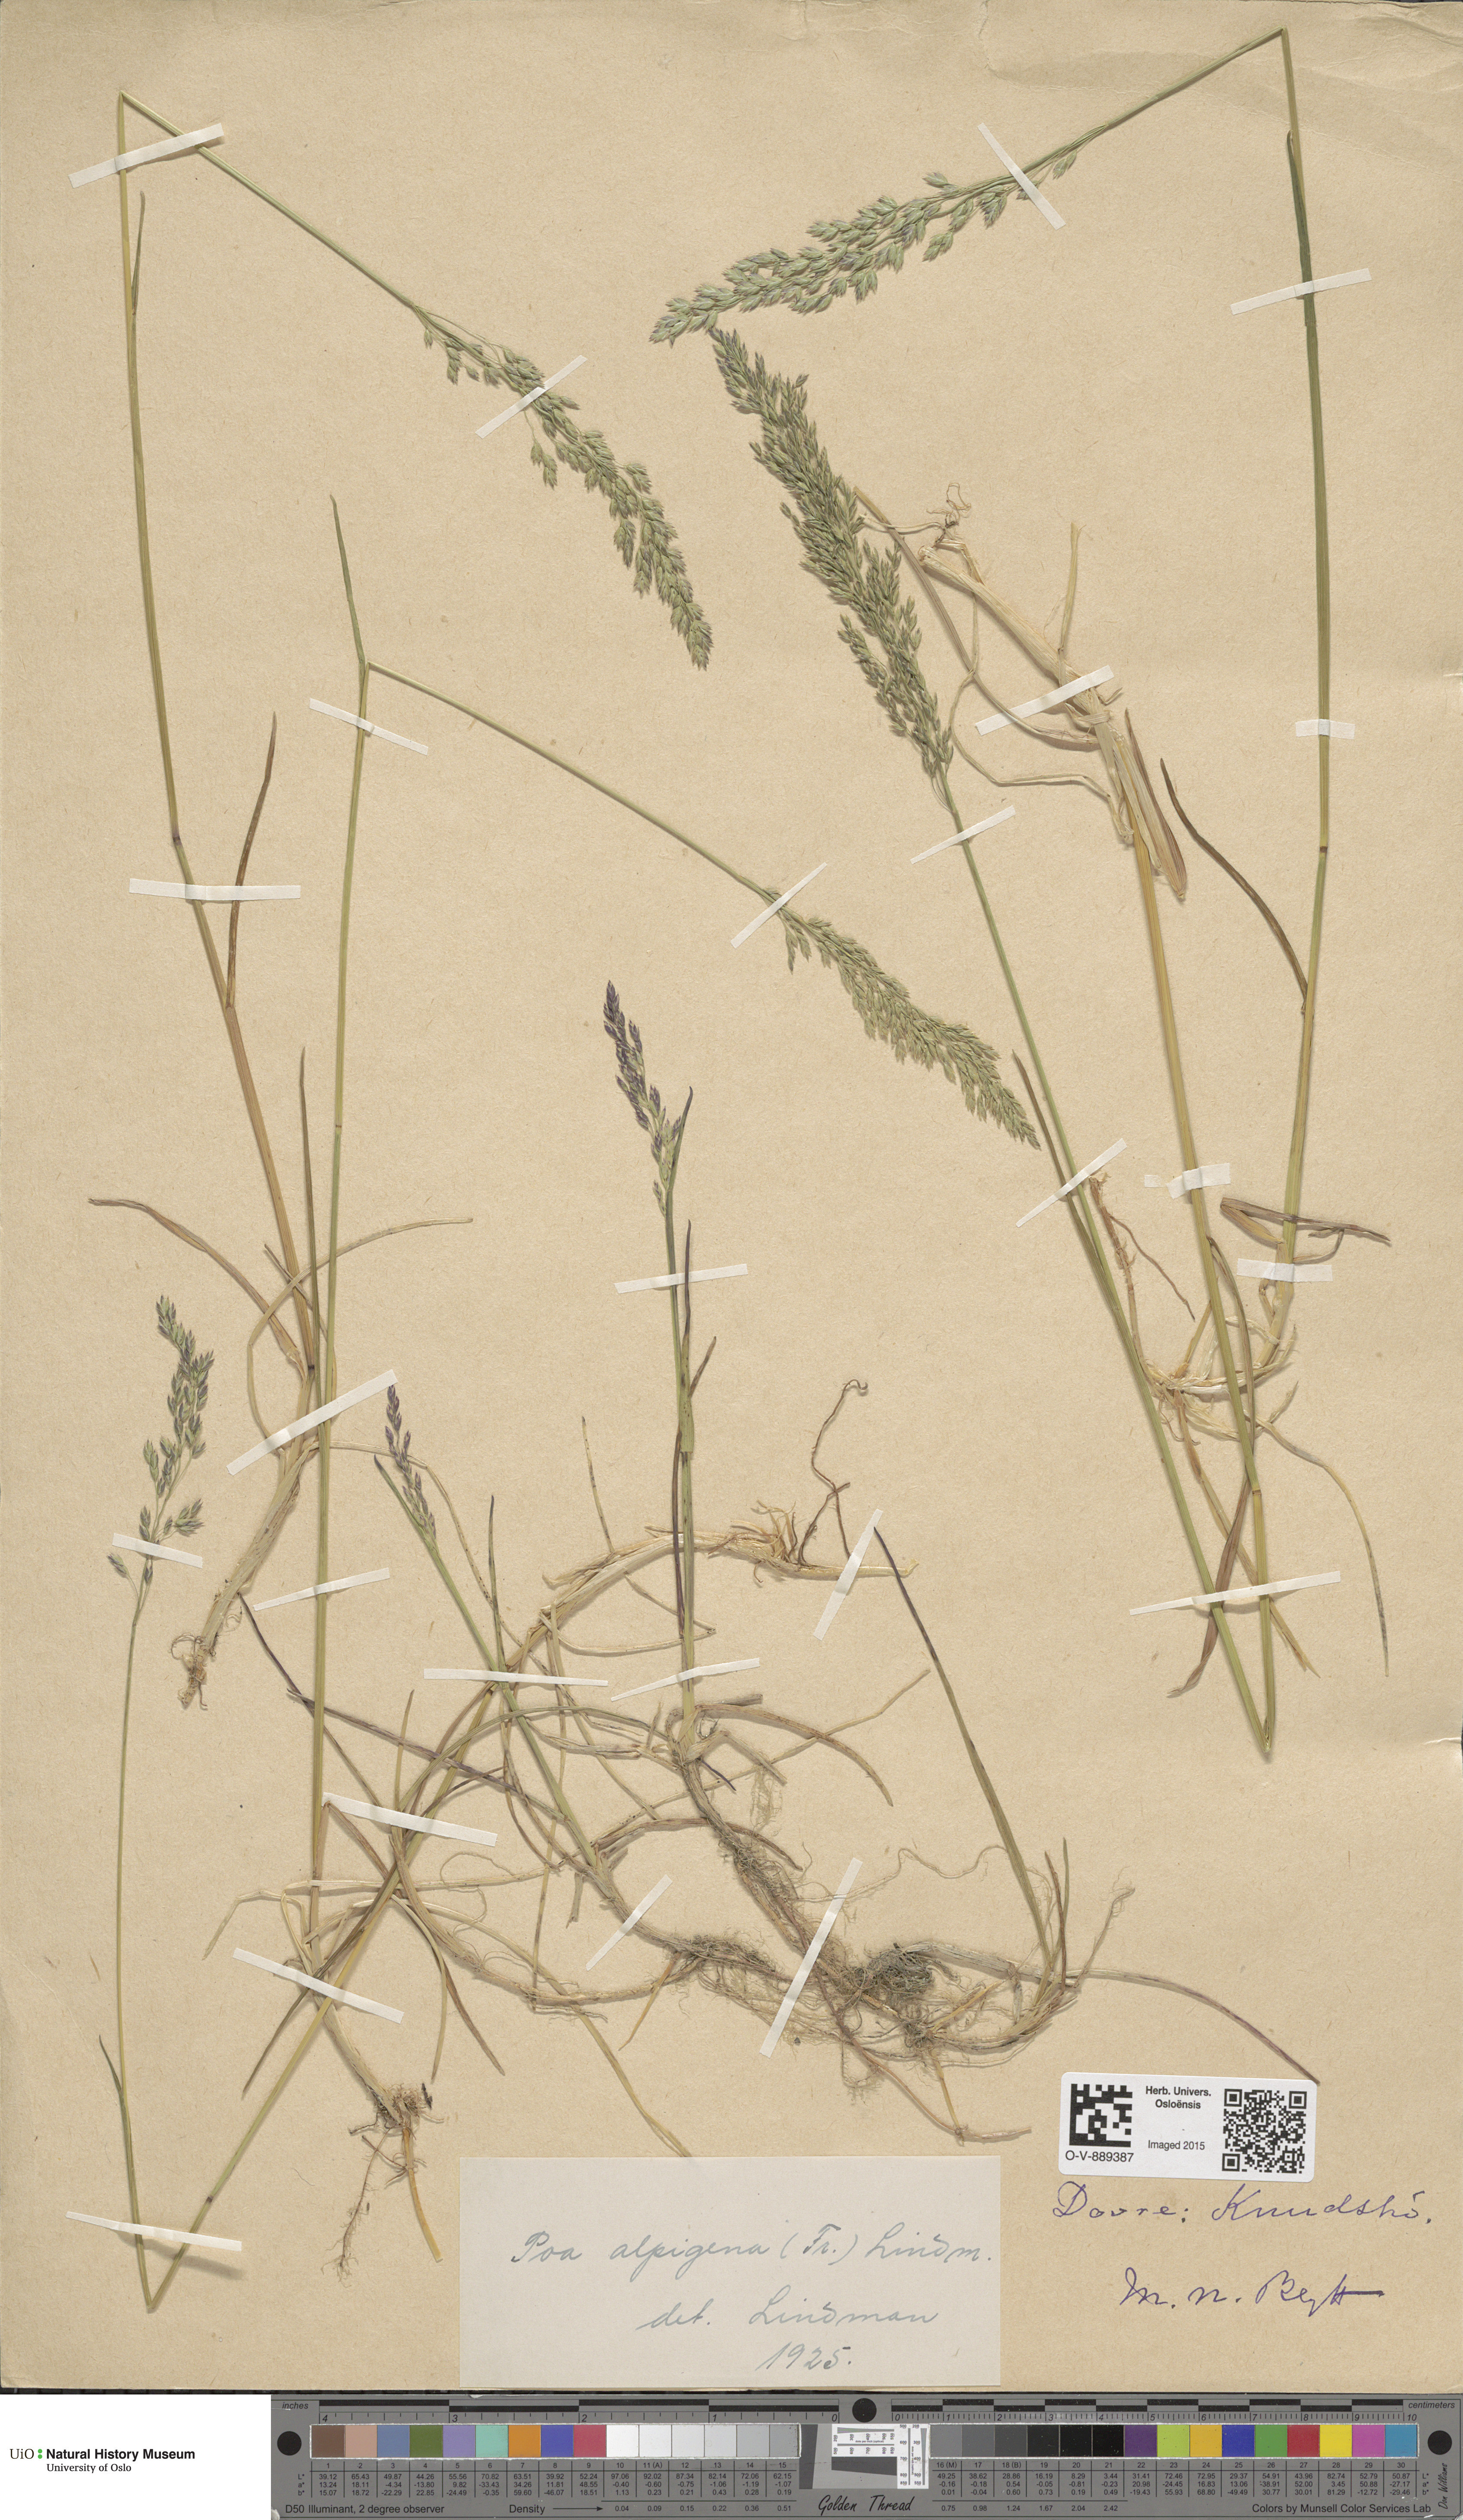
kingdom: Plantae
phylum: Tracheophyta
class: Liliopsida
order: Poales
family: Poaceae
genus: Poa
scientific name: Poa alpigena
